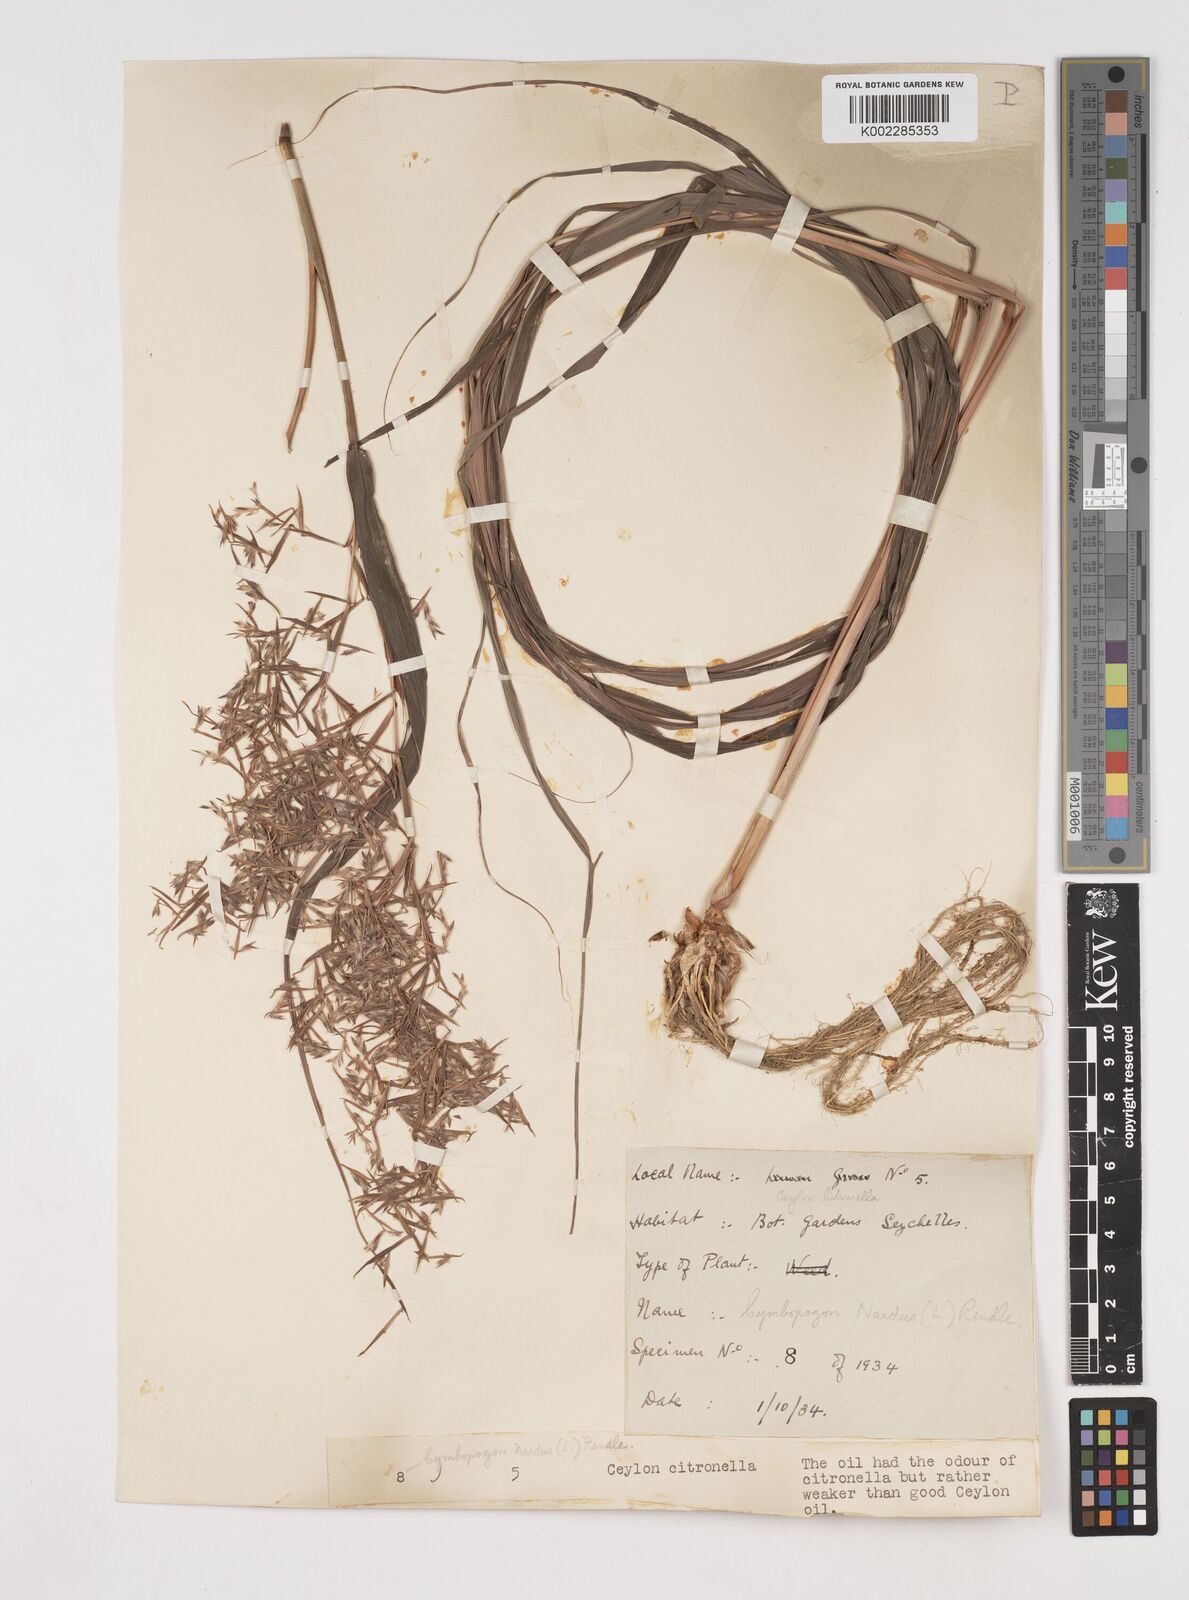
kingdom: Plantae
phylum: Tracheophyta
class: Liliopsida
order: Poales
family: Poaceae
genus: Cymbopogon
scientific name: Cymbopogon nardus
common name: Giant turpentine grass
